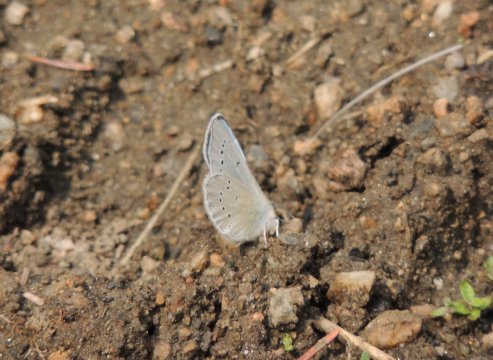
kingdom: Animalia
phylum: Arthropoda
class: Insecta
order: Lepidoptera
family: Lycaenidae
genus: Glaucopsyche
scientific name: Glaucopsyche lygdamus
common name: Silvery Blue
